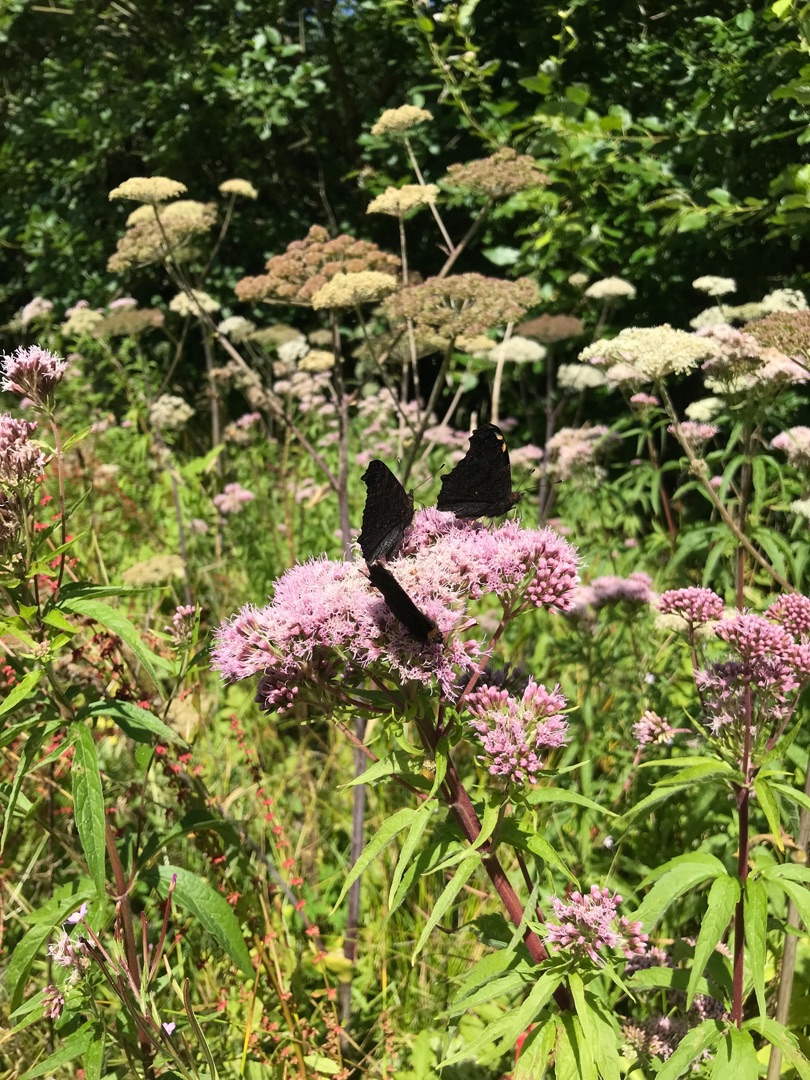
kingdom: Animalia
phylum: Arthropoda
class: Insecta
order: Lepidoptera
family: Nymphalidae
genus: Aglais
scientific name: Aglais io
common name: Dagpåfugleøje
